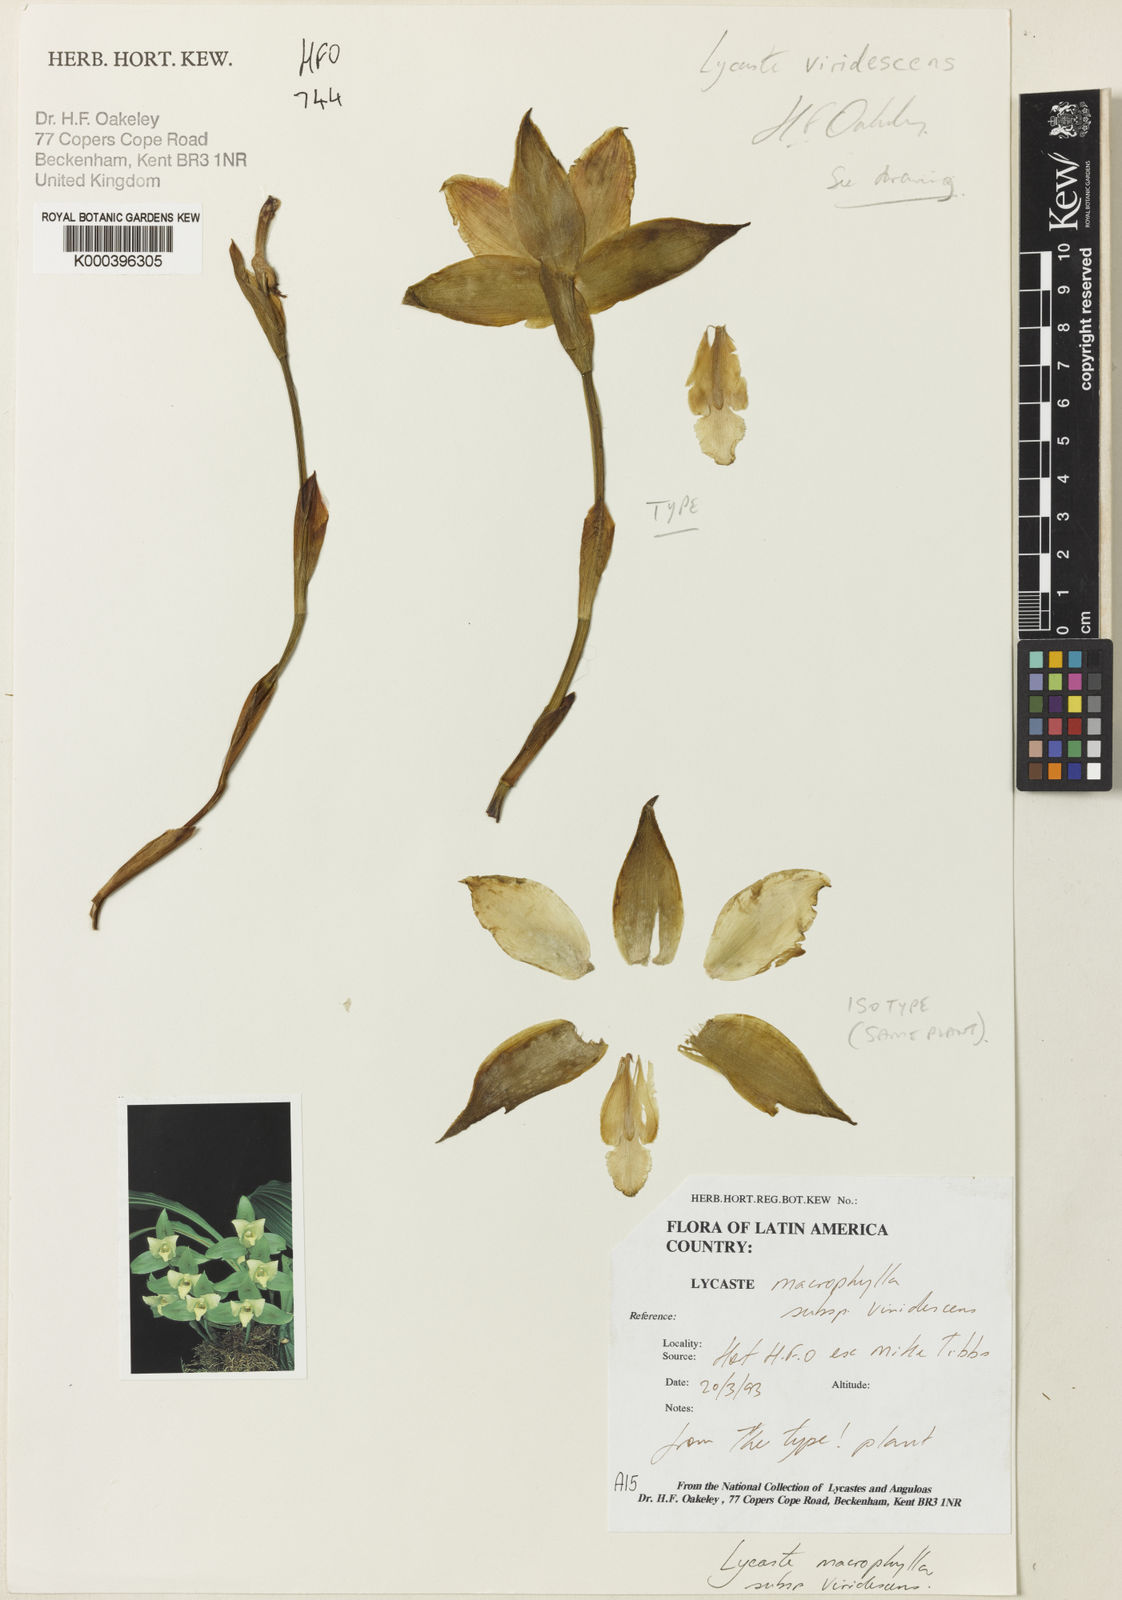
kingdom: Plantae
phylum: Tracheophyta
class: Liliopsida
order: Asparagales
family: Orchidaceae
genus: Lycaste
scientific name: Lycaste viridescens
